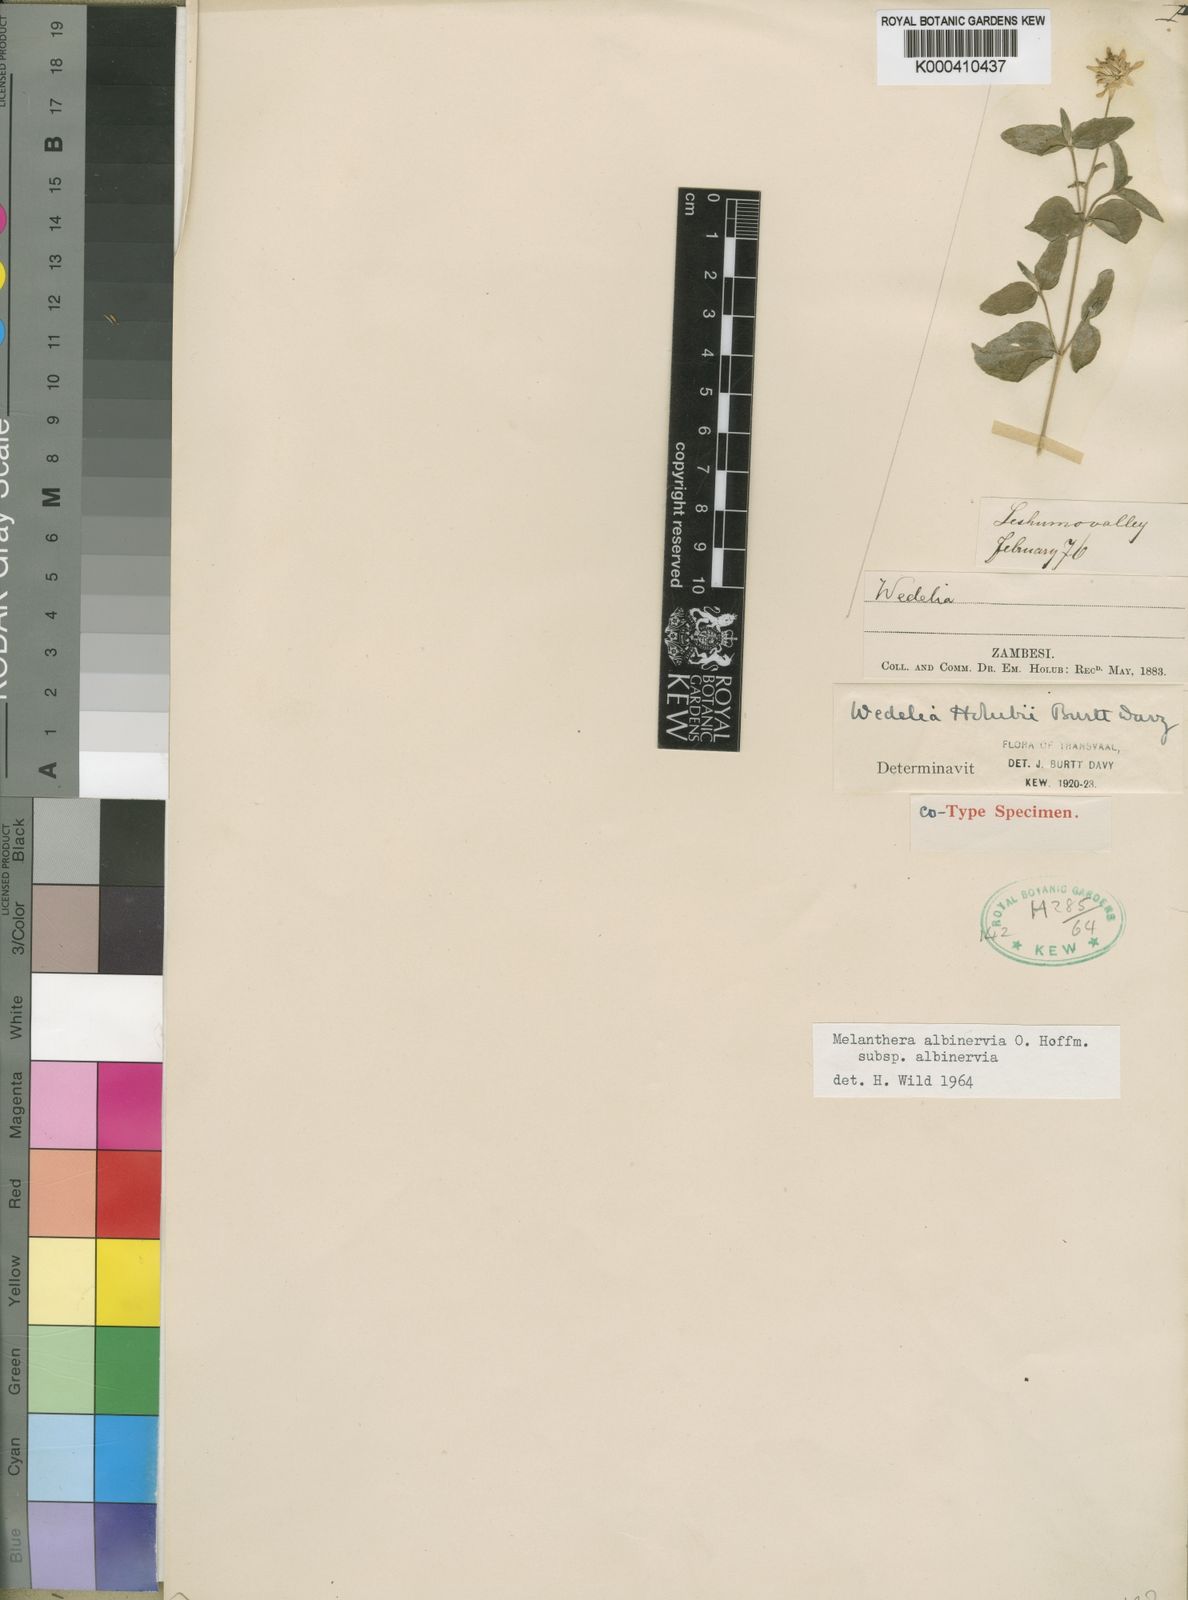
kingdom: Plantae
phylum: Tracheophyta
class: Magnoliopsida
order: Asterales
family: Asteraceae
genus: Lipotriche
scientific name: Lipotriche pungens
